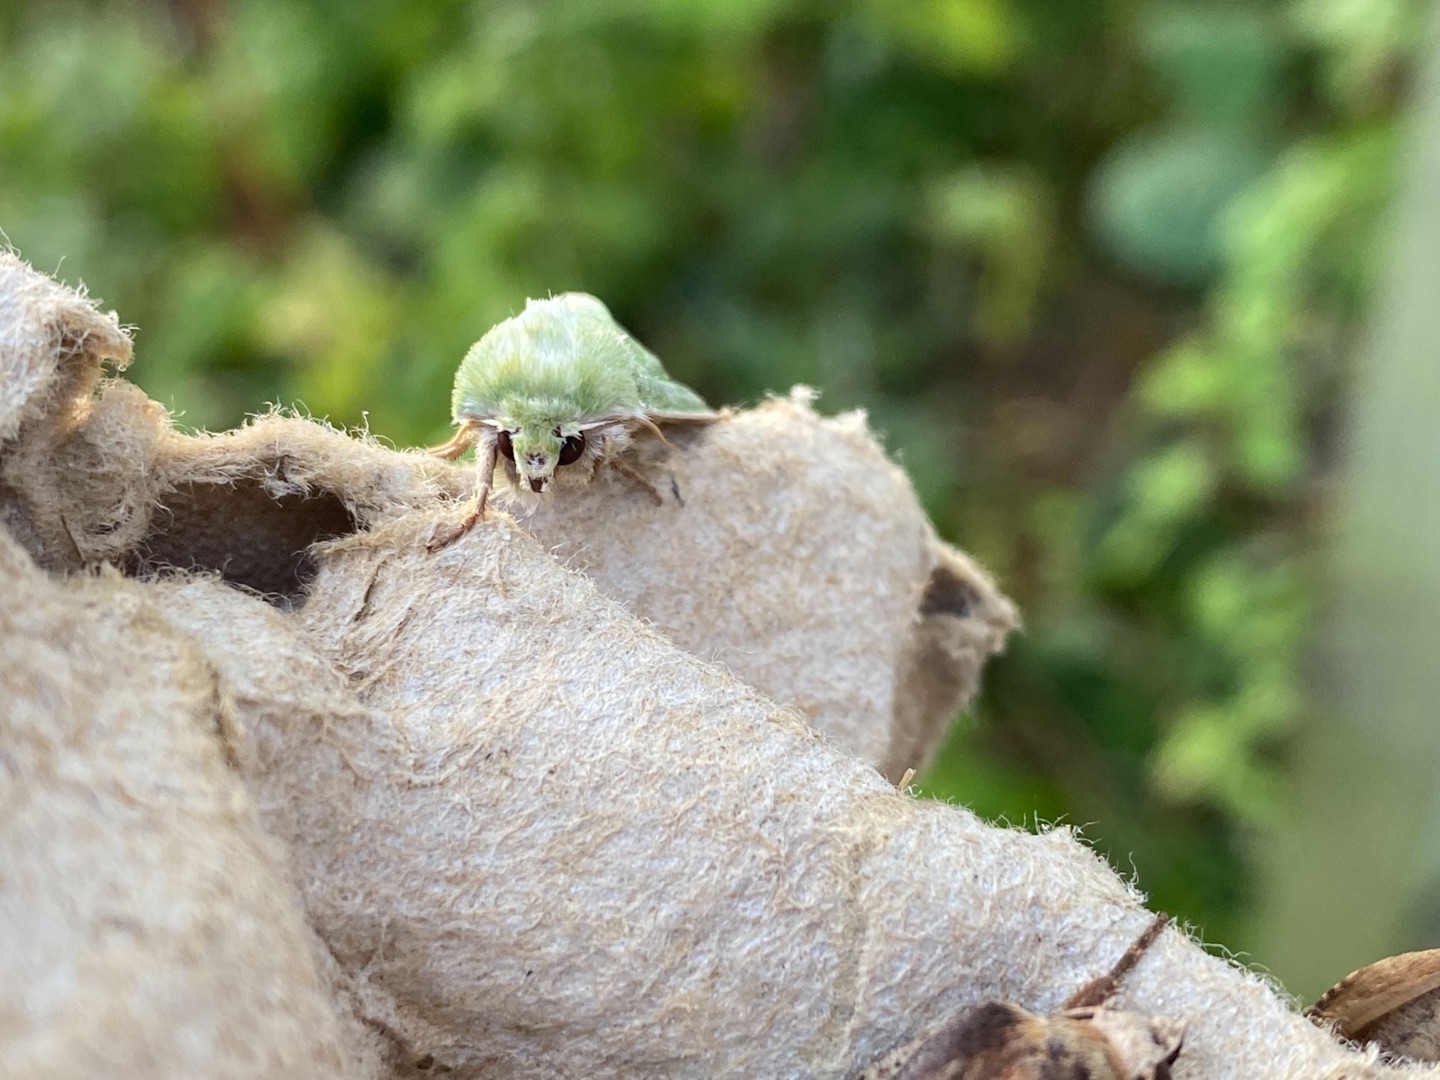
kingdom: Animalia
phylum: Arthropoda
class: Insecta
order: Lepidoptera
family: Noctuidae
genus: Calamia
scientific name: Calamia tridens
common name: Grøn engugle
